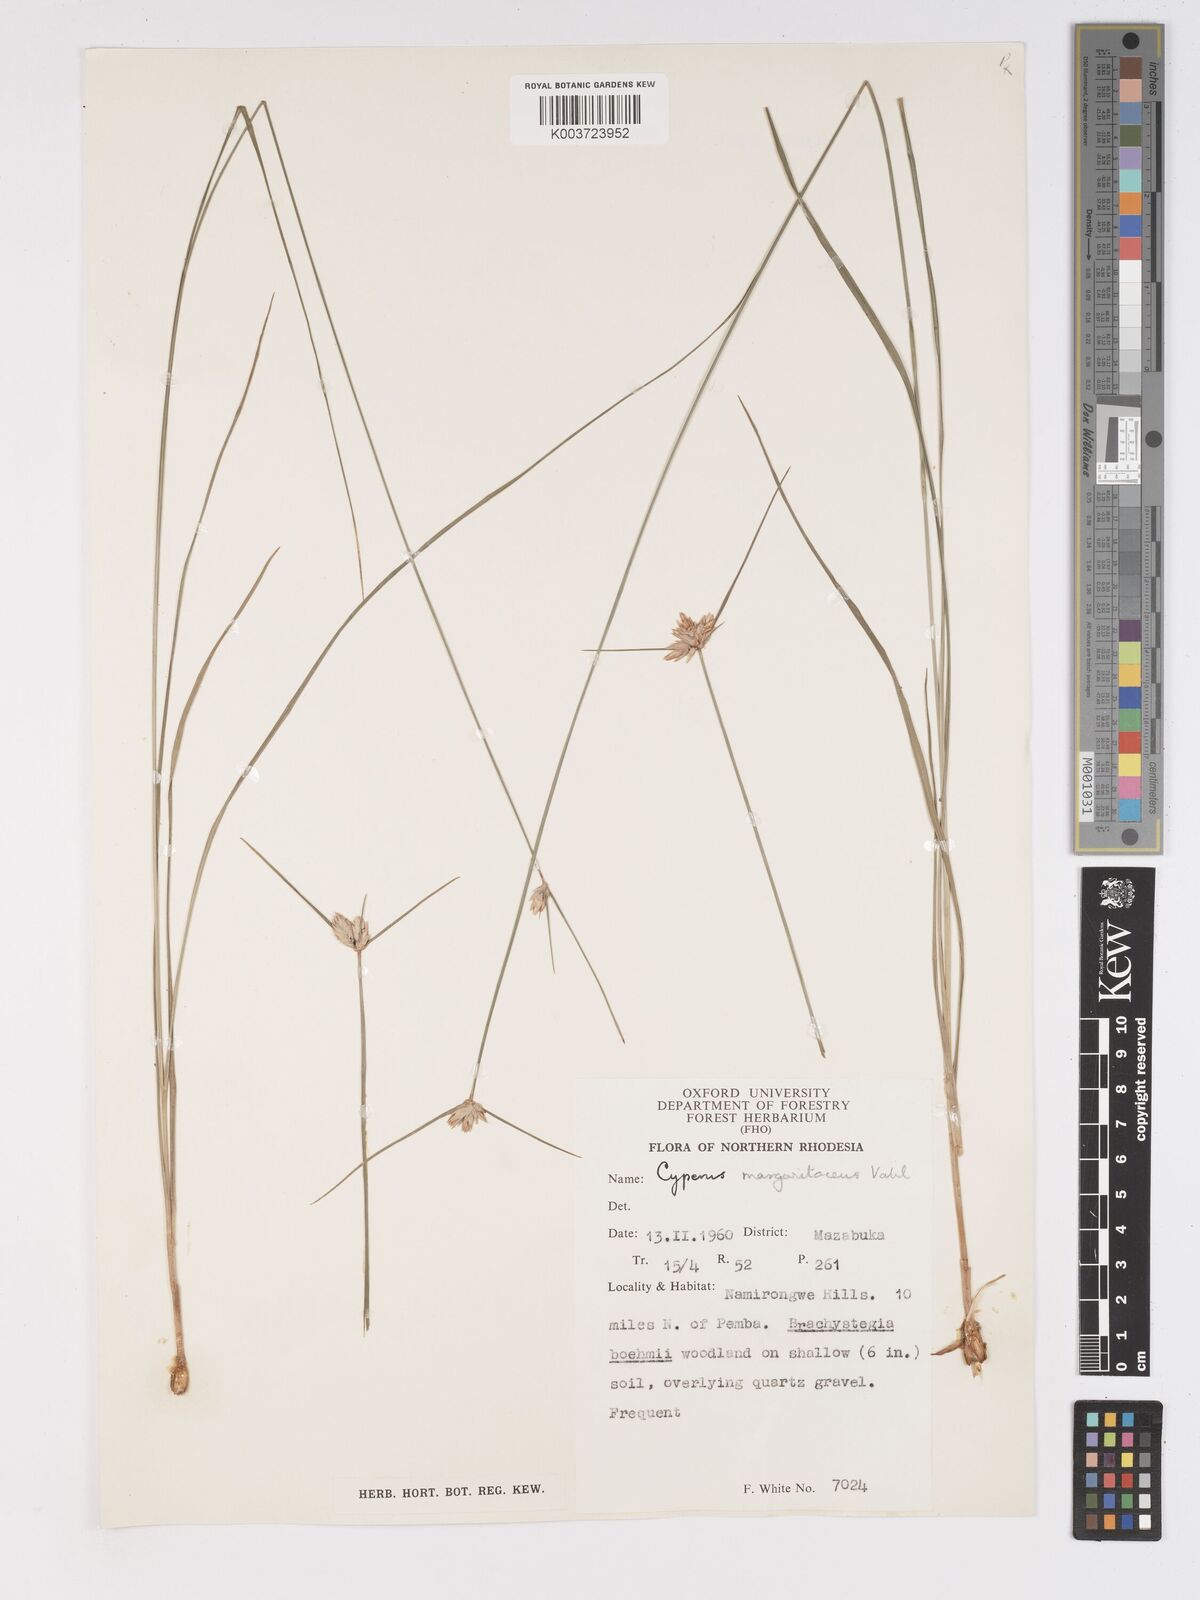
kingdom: Plantae
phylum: Tracheophyta
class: Liliopsida
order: Poales
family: Cyperaceae
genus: Cyperus
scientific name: Cyperus margaritaceus
